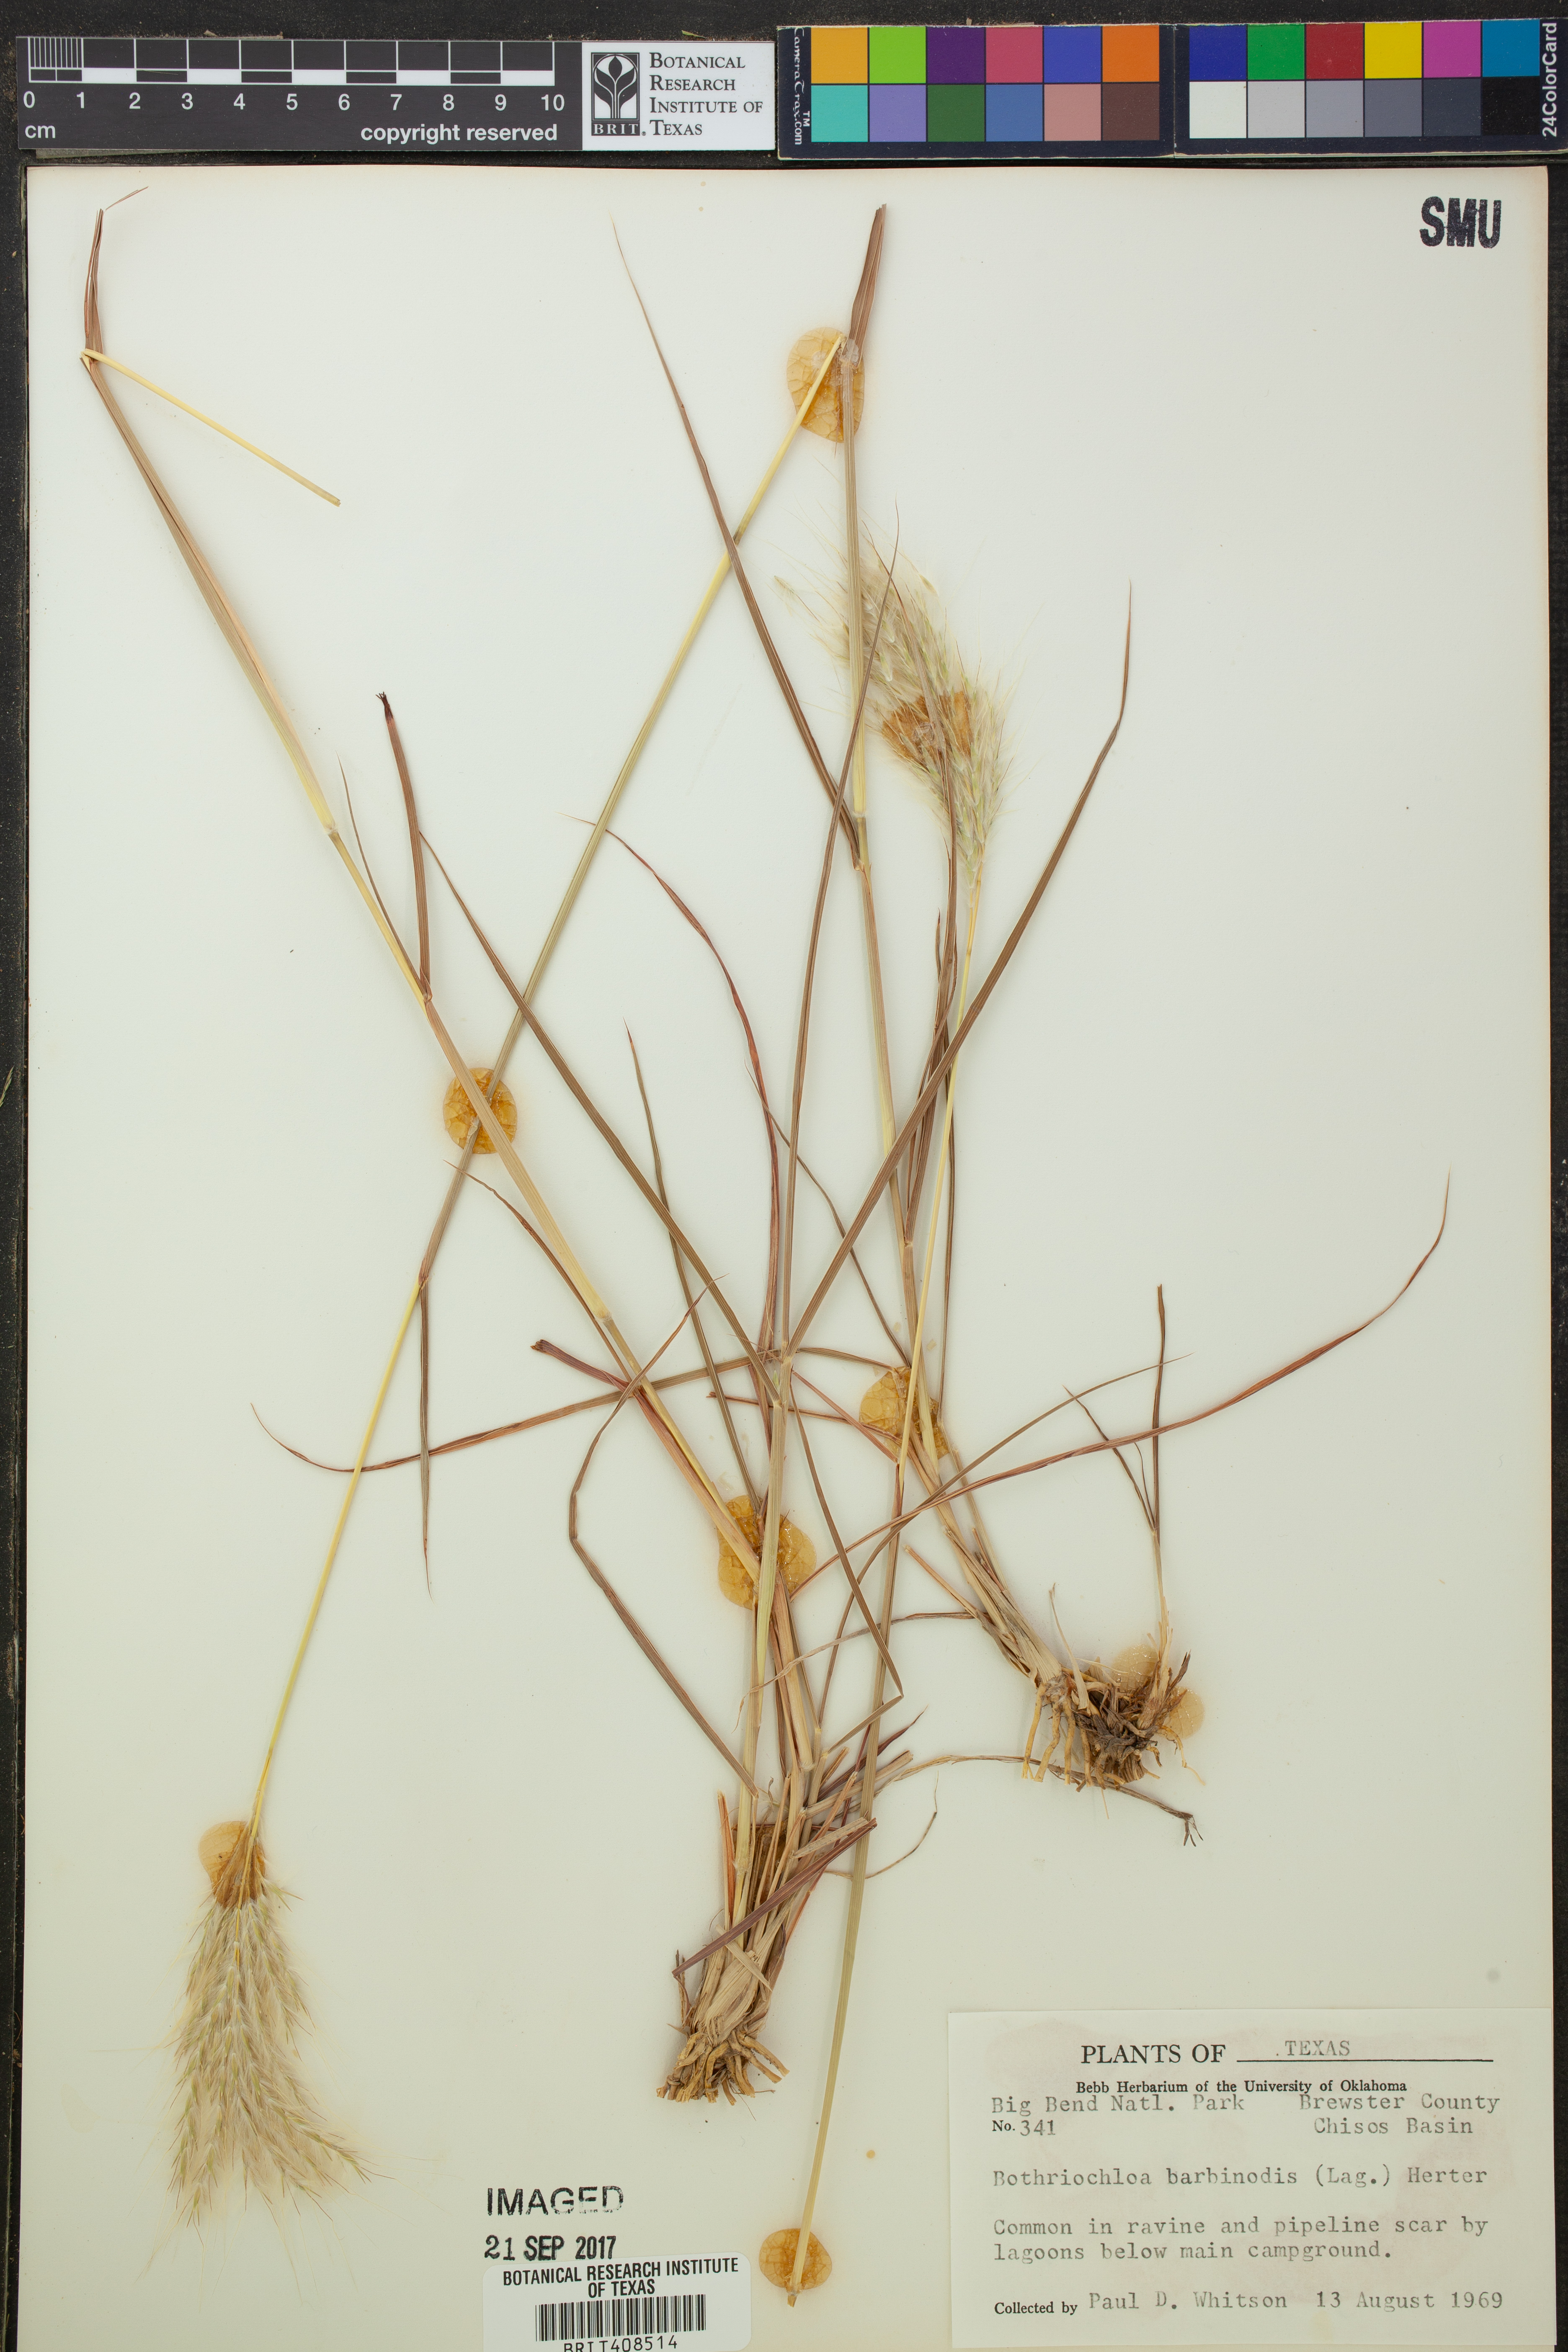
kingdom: Plantae
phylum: Tracheophyta
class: Liliopsida
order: Poales
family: Poaceae
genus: Bothriochloa
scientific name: Bothriochloa barbinodis
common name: Cane bluestem
